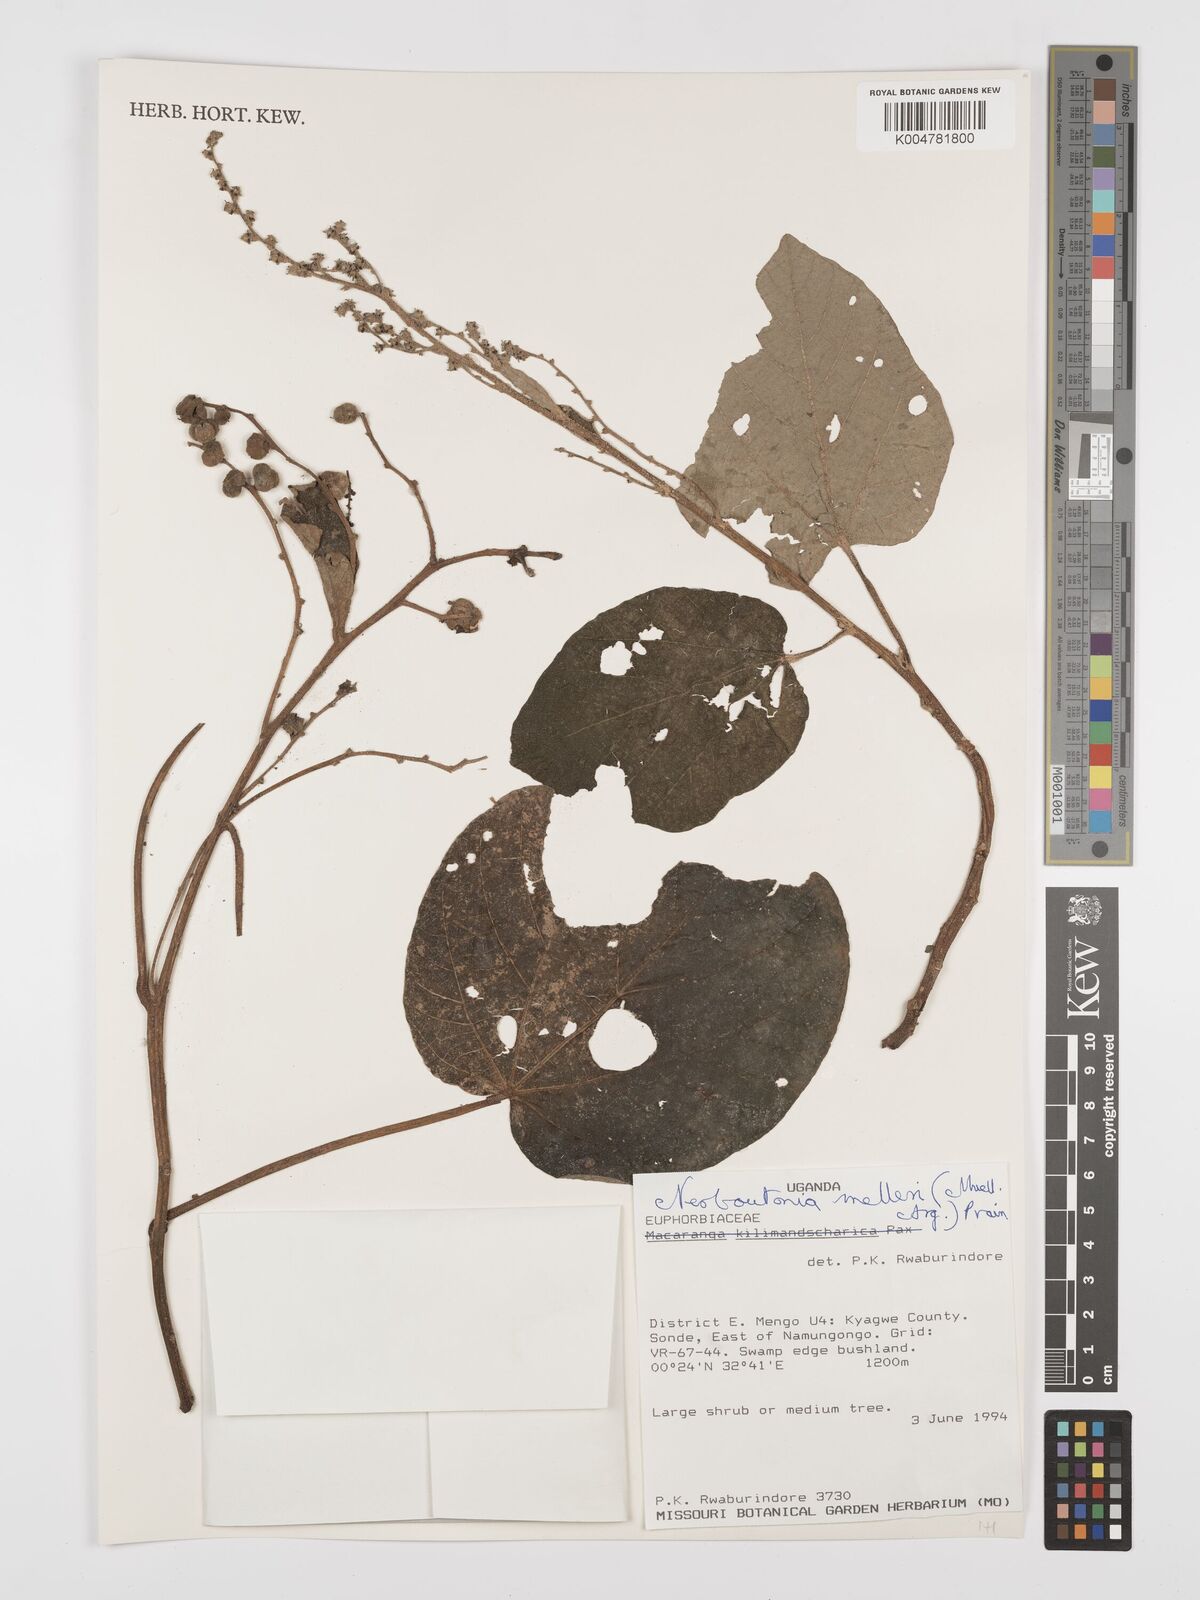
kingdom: Plantae
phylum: Tracheophyta
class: Magnoliopsida
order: Malpighiales
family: Euphorbiaceae
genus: Neoboutonia
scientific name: Neoboutonia melleri
